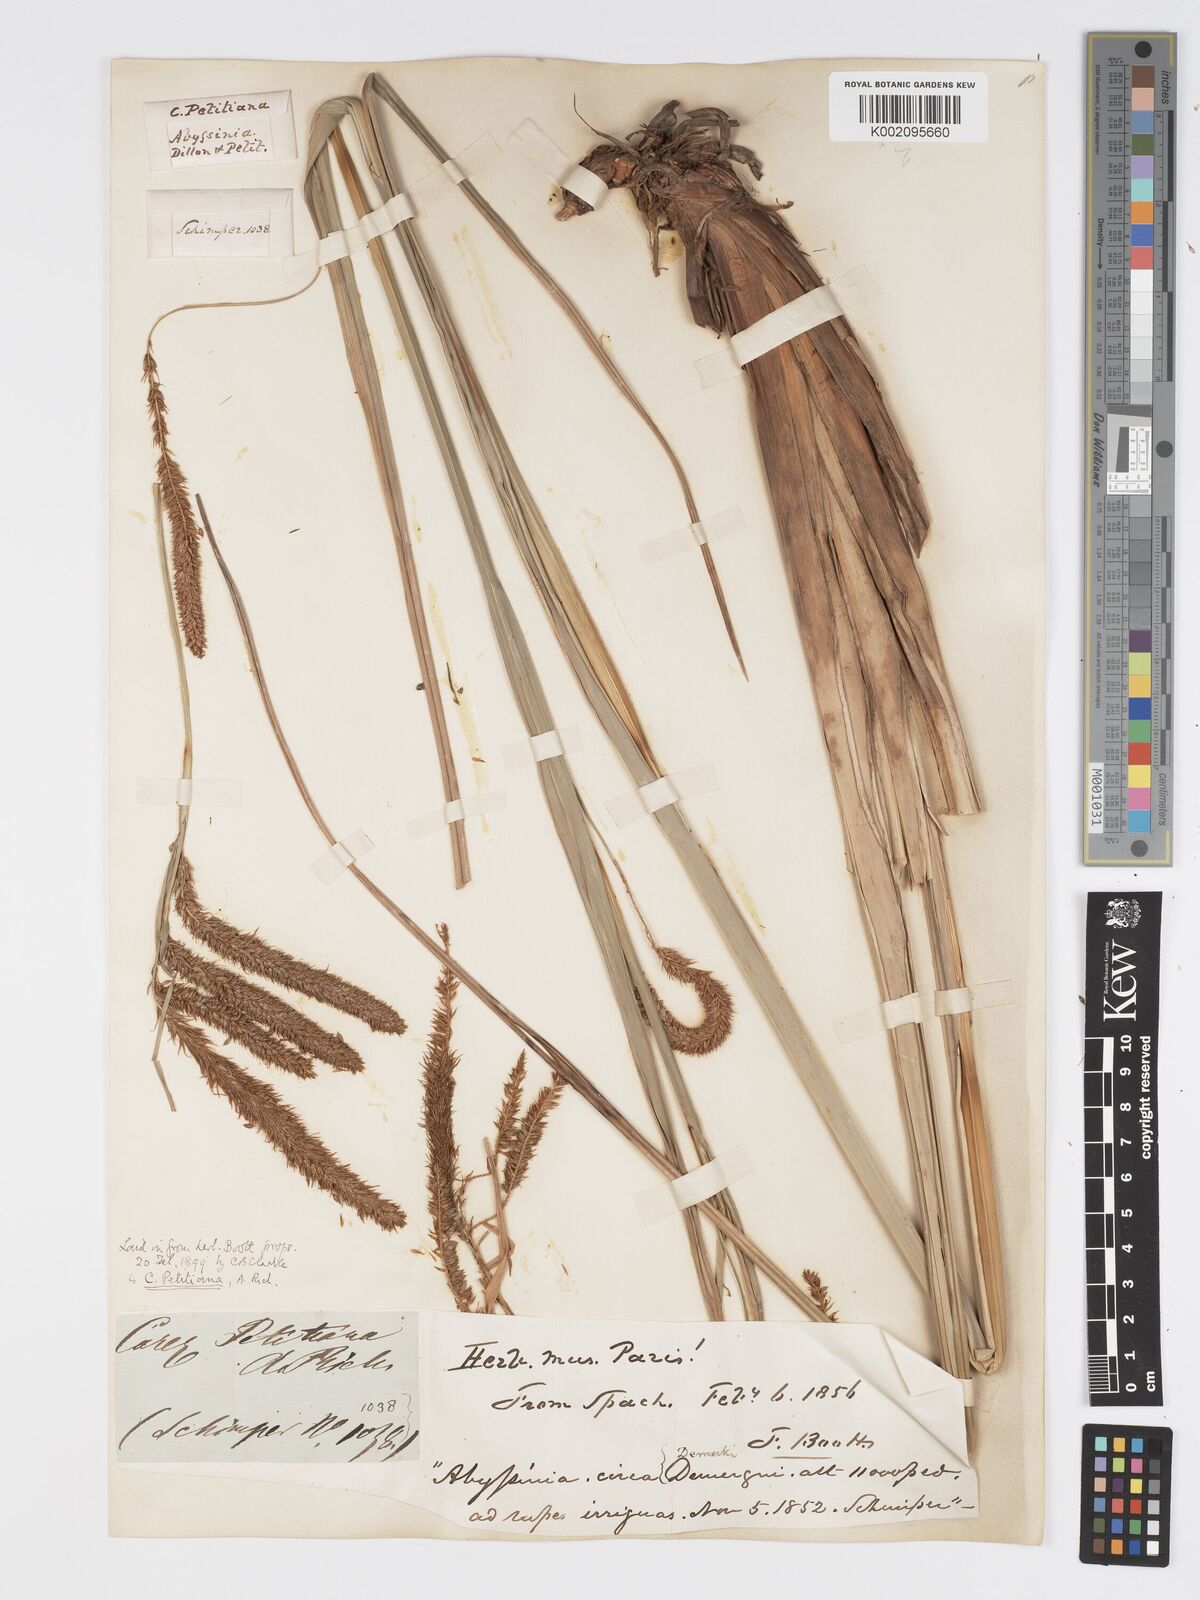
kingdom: Plantae
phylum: Tracheophyta
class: Liliopsida
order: Poales
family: Cyperaceae
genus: Carex
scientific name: Carex petitiana
